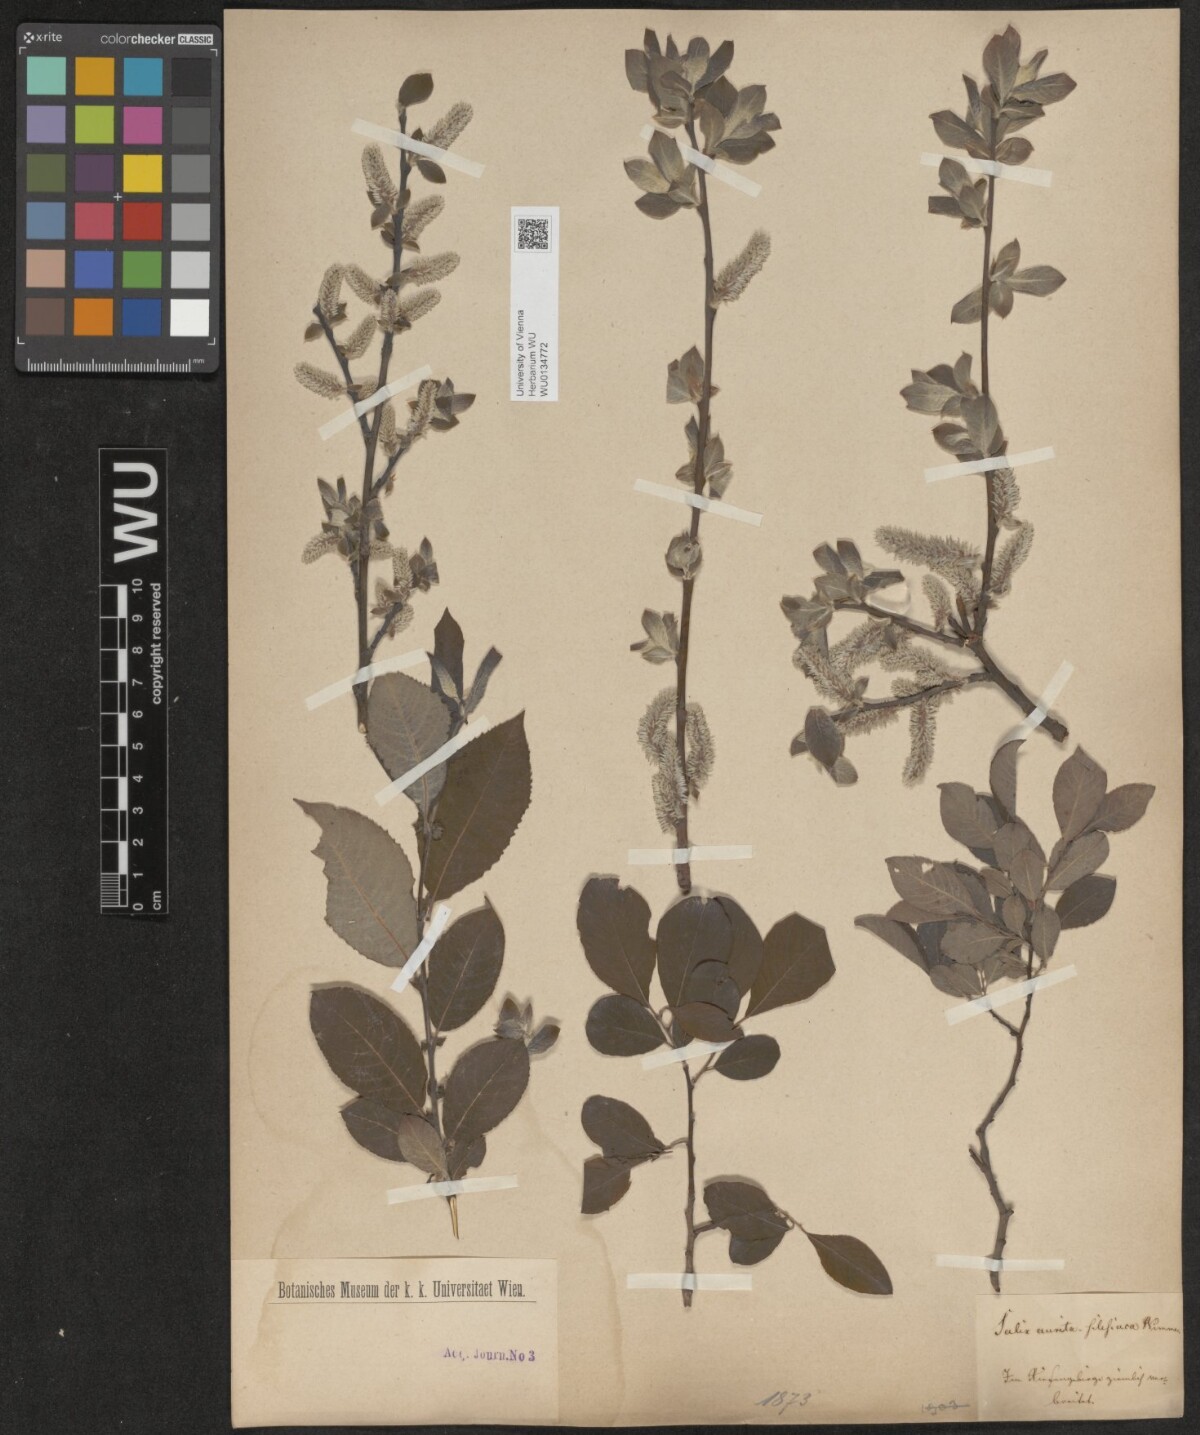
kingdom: Plantae
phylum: Tracheophyta
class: Magnoliopsida
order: Malpighiales
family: Salicaceae
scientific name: Salicaceae
